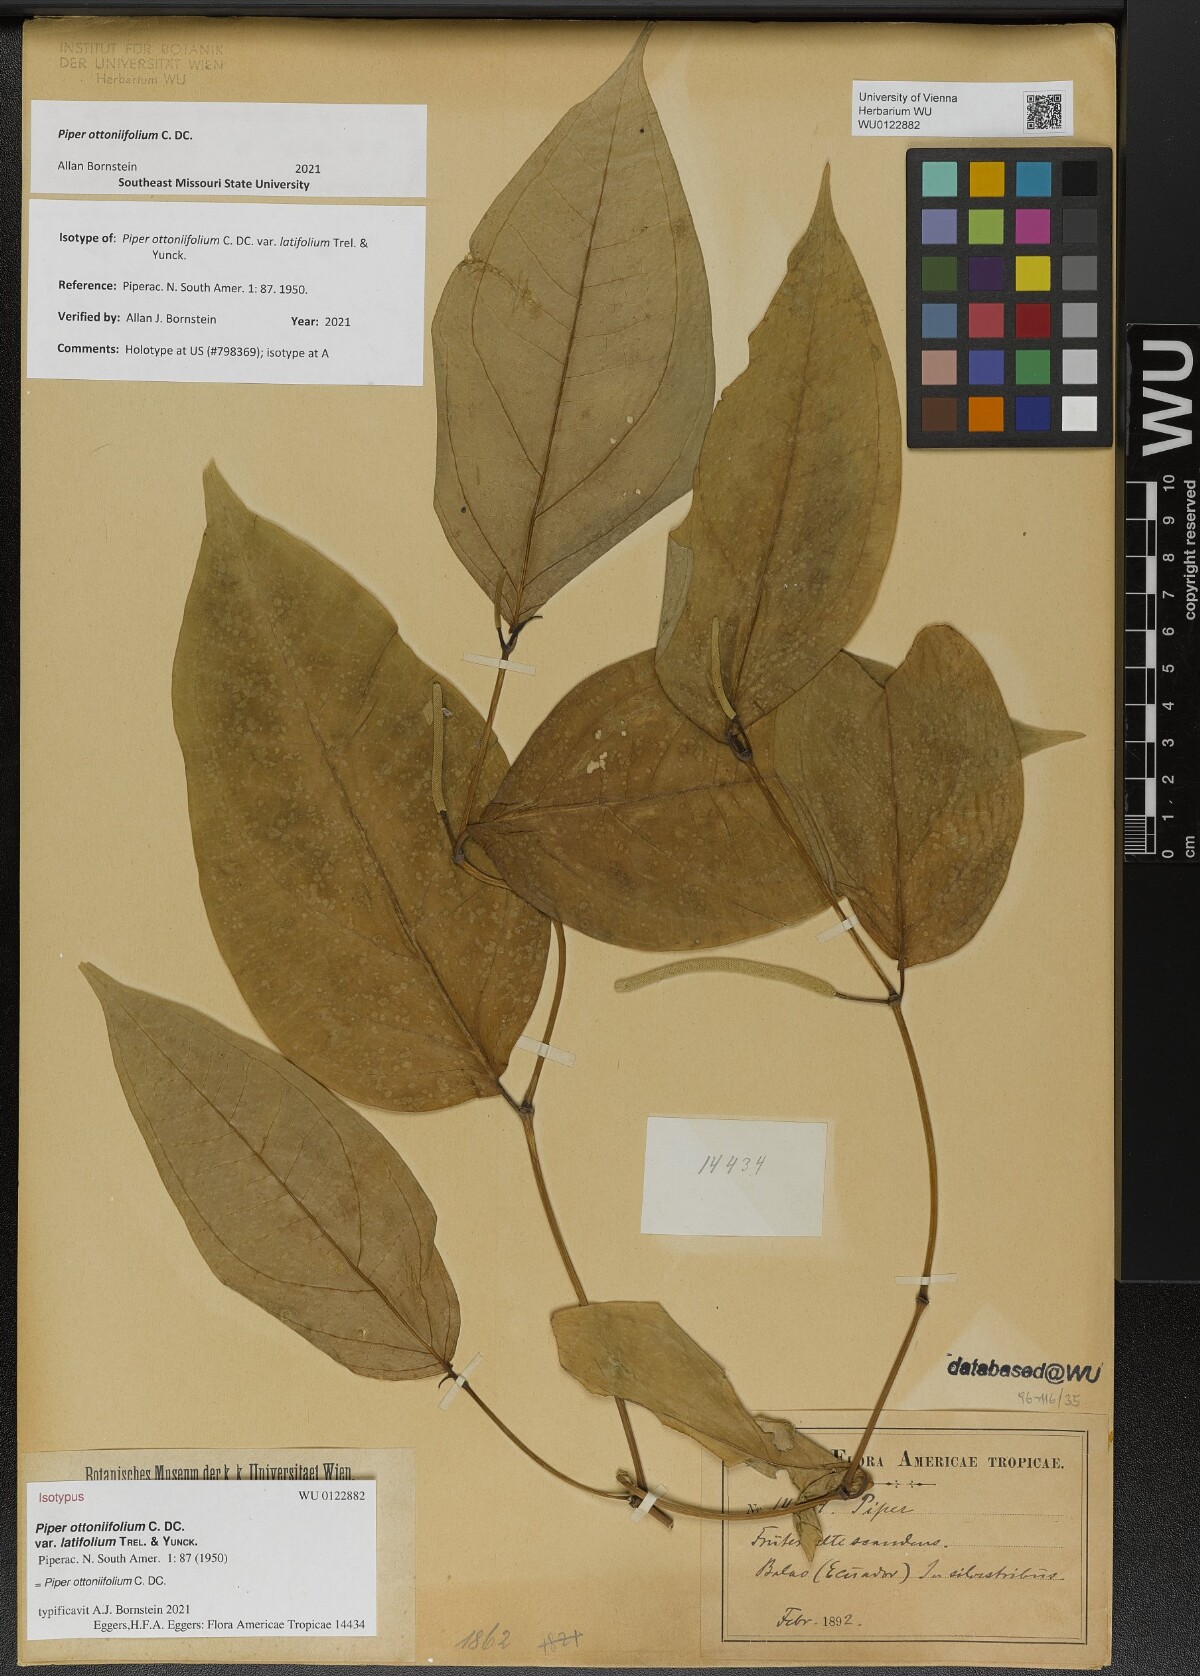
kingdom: Plantae
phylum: Tracheophyta
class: Magnoliopsida
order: Piperales
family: Piperaceae
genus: Piper
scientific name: Piper ottoniifolium
